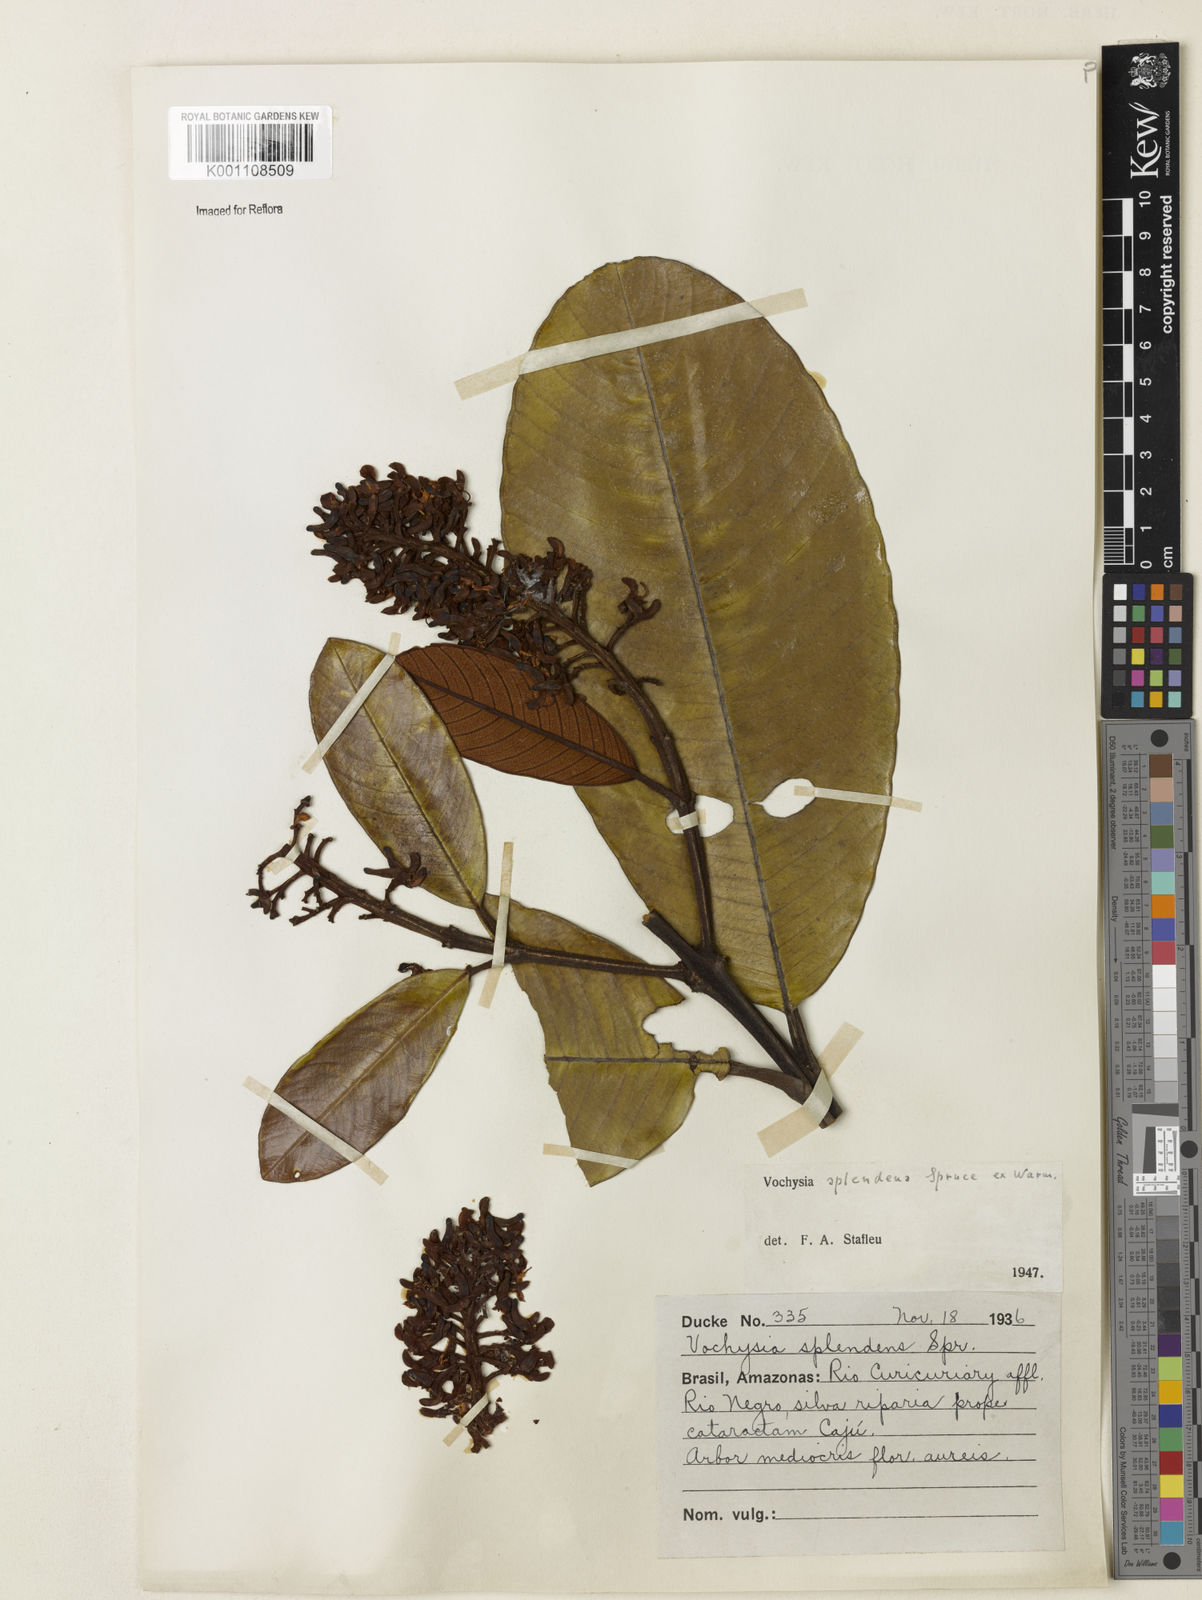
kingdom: Plantae
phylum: Tracheophyta
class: Magnoliopsida
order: Myrtales
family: Vochysiaceae
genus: Vochysia
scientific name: Vochysia splendens
